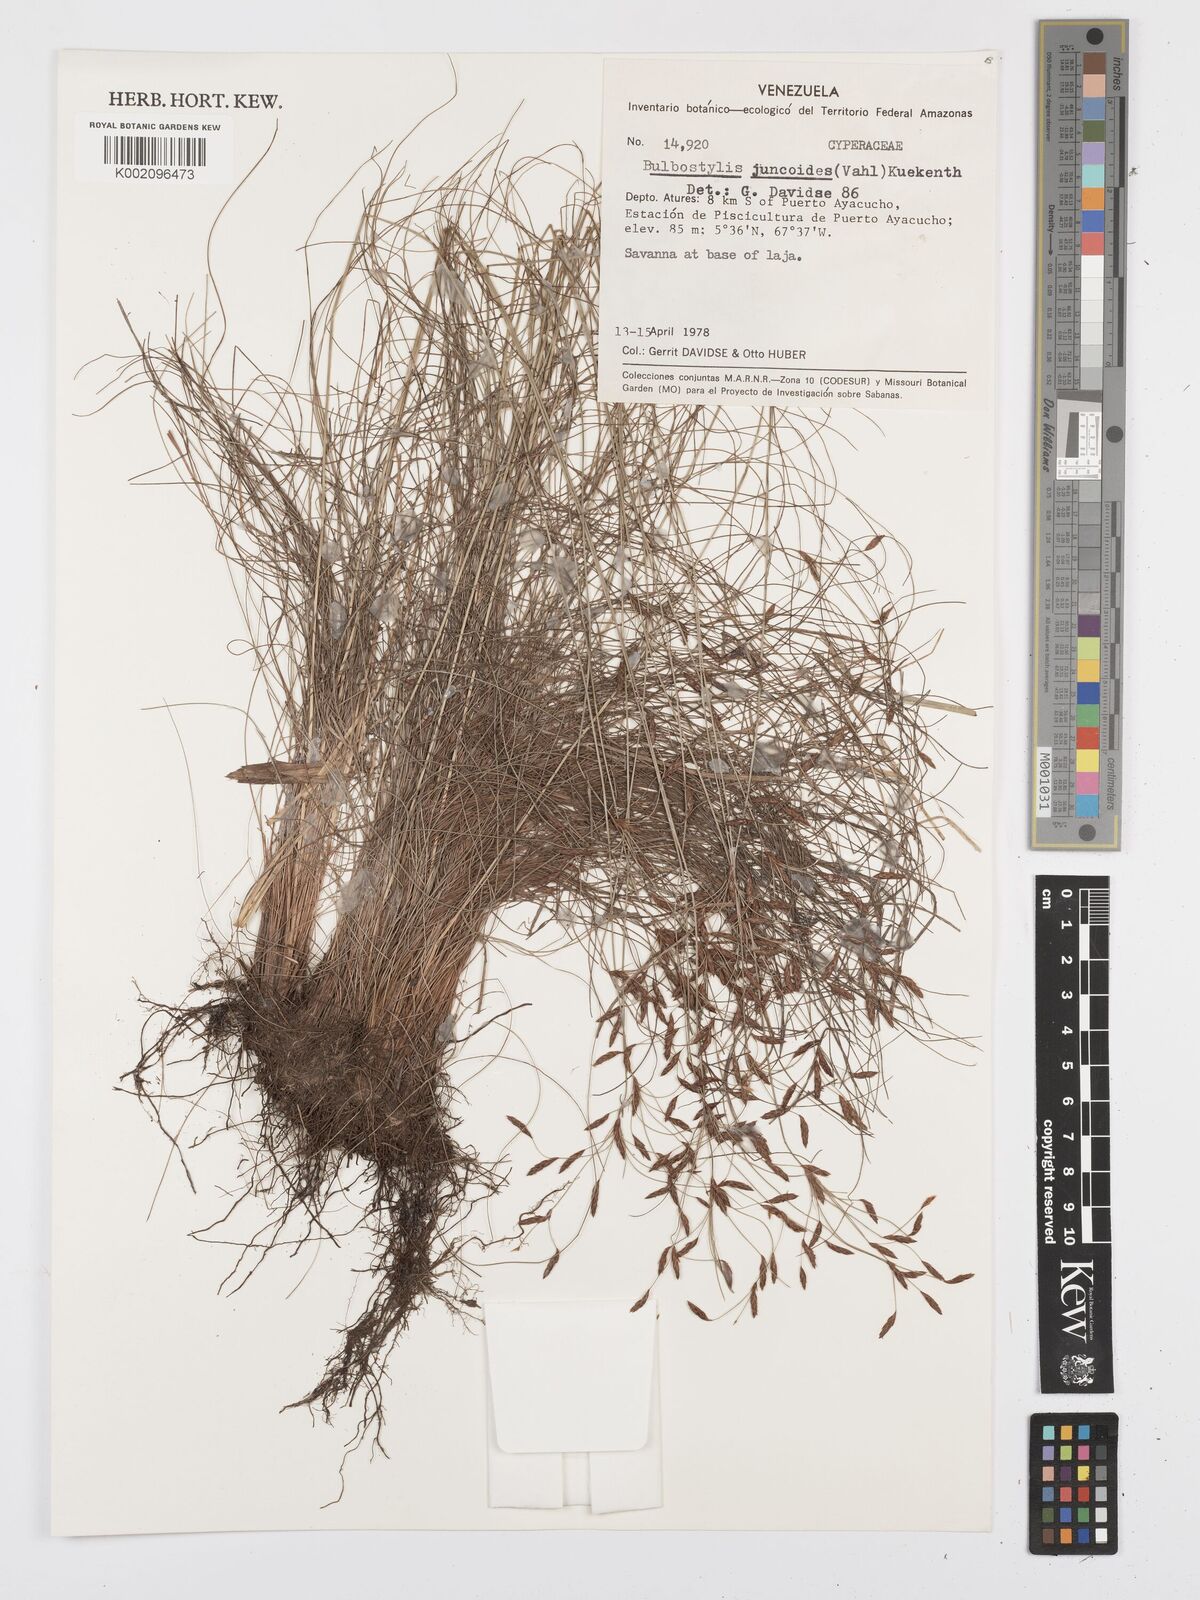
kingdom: Plantae
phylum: Tracheophyta
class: Liliopsida
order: Poales
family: Cyperaceae
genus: Bulbostylis
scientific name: Bulbostylis juncoides
